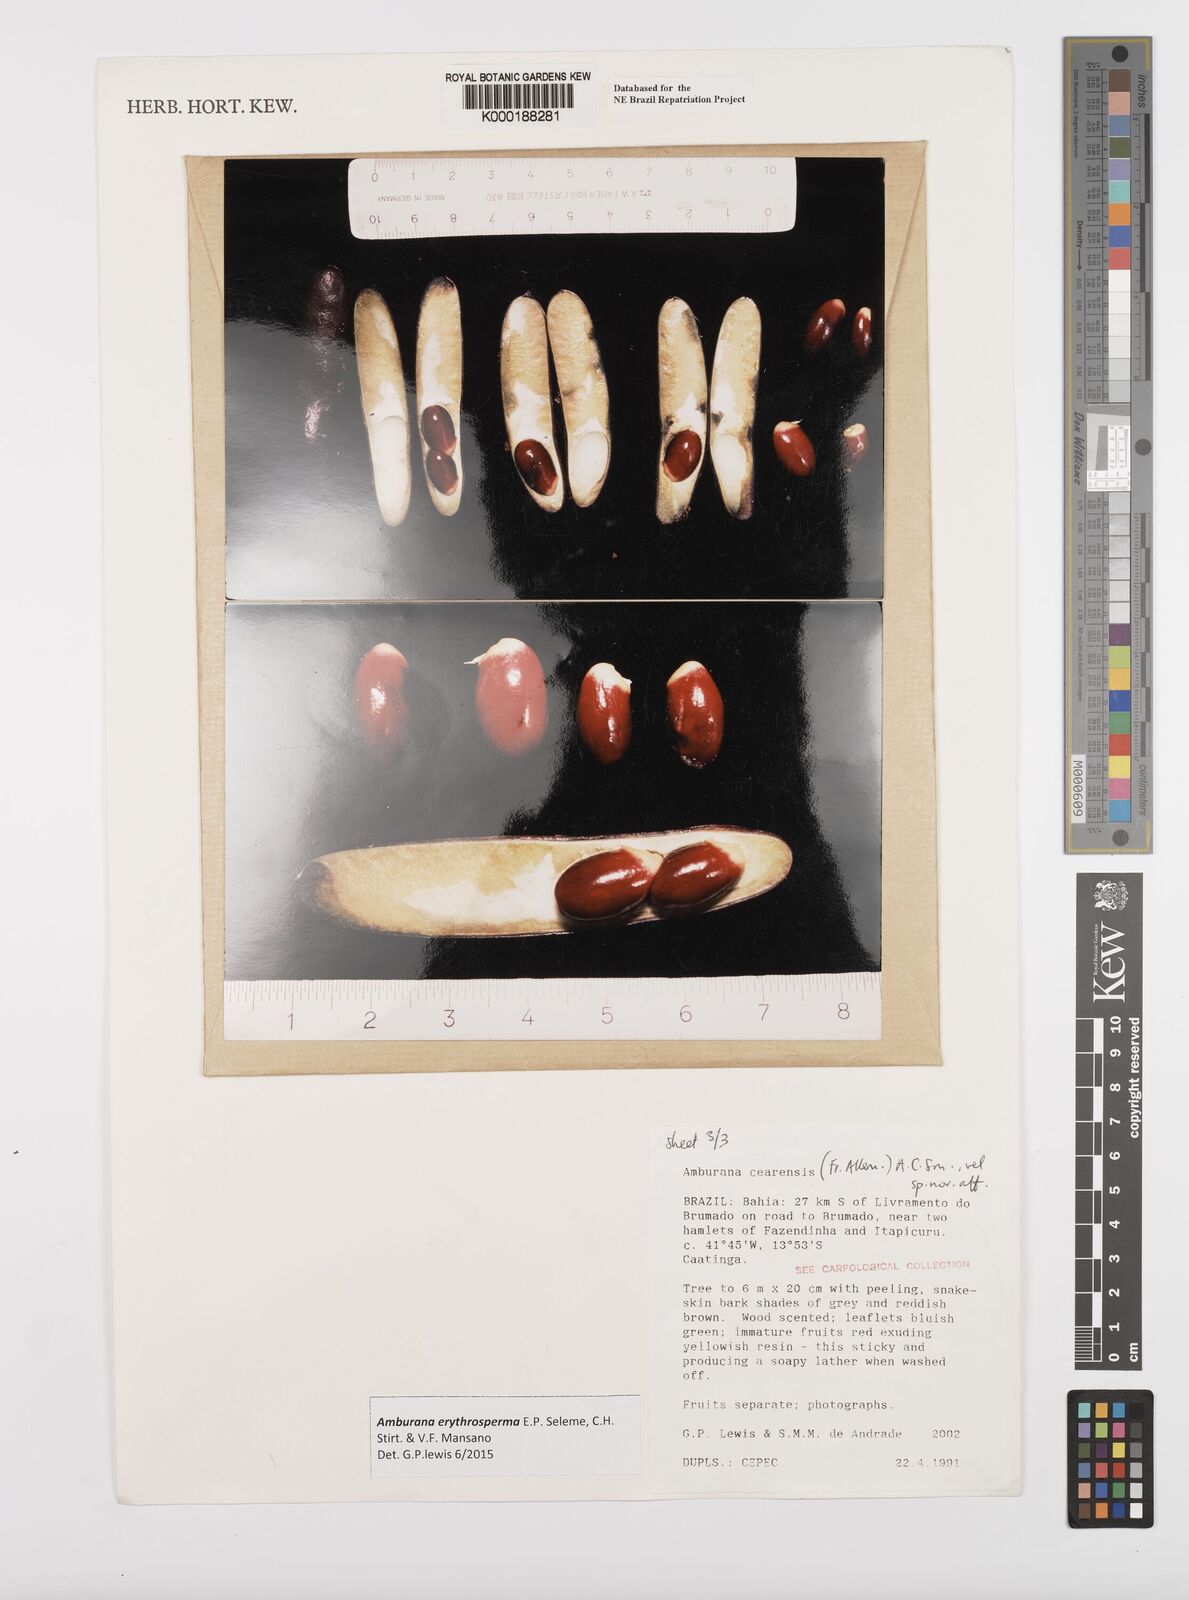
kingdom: Plantae
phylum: Tracheophyta
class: Magnoliopsida
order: Fabales
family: Fabaceae
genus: Amburana
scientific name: Amburana
